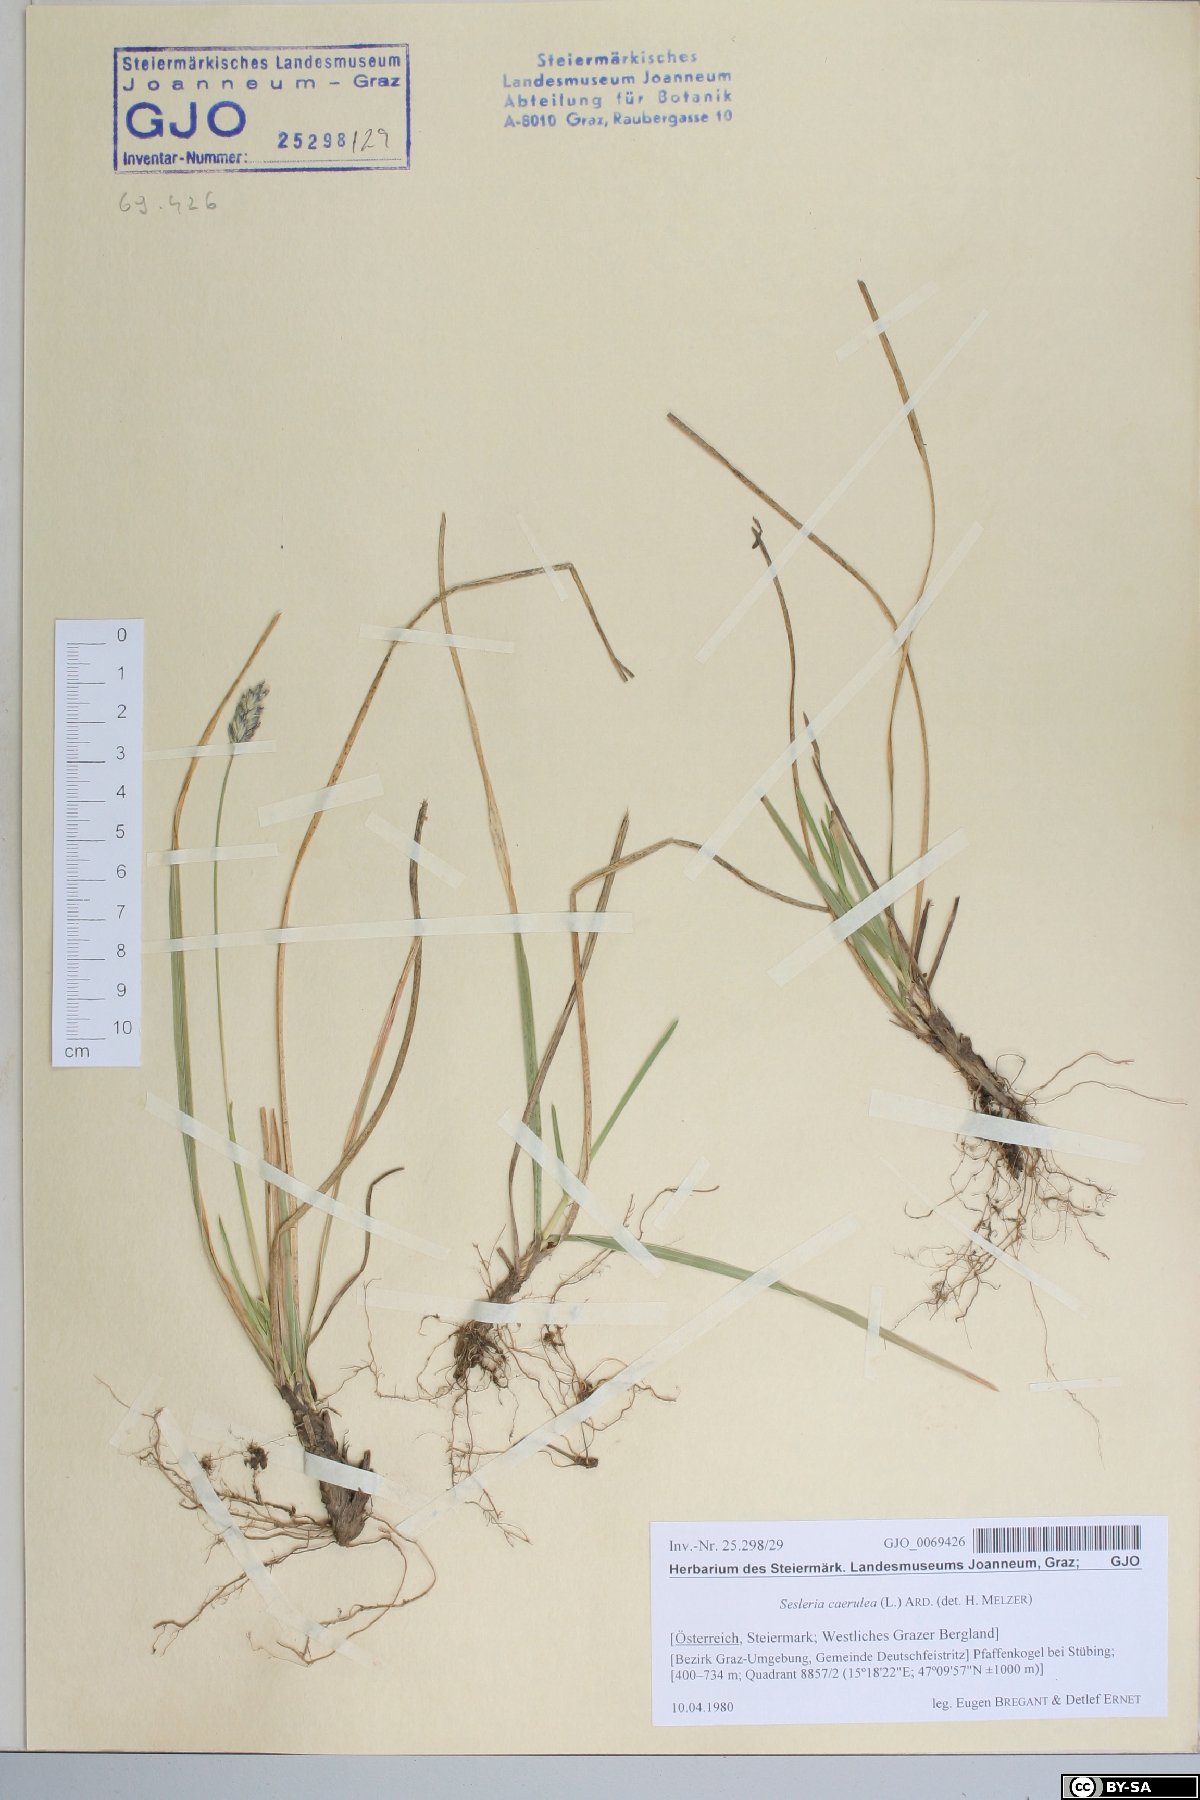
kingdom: Plantae
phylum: Tracheophyta
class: Liliopsida
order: Poales
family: Poaceae
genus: Sesleria
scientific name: Sesleria caerulea
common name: Blue moor-grass
